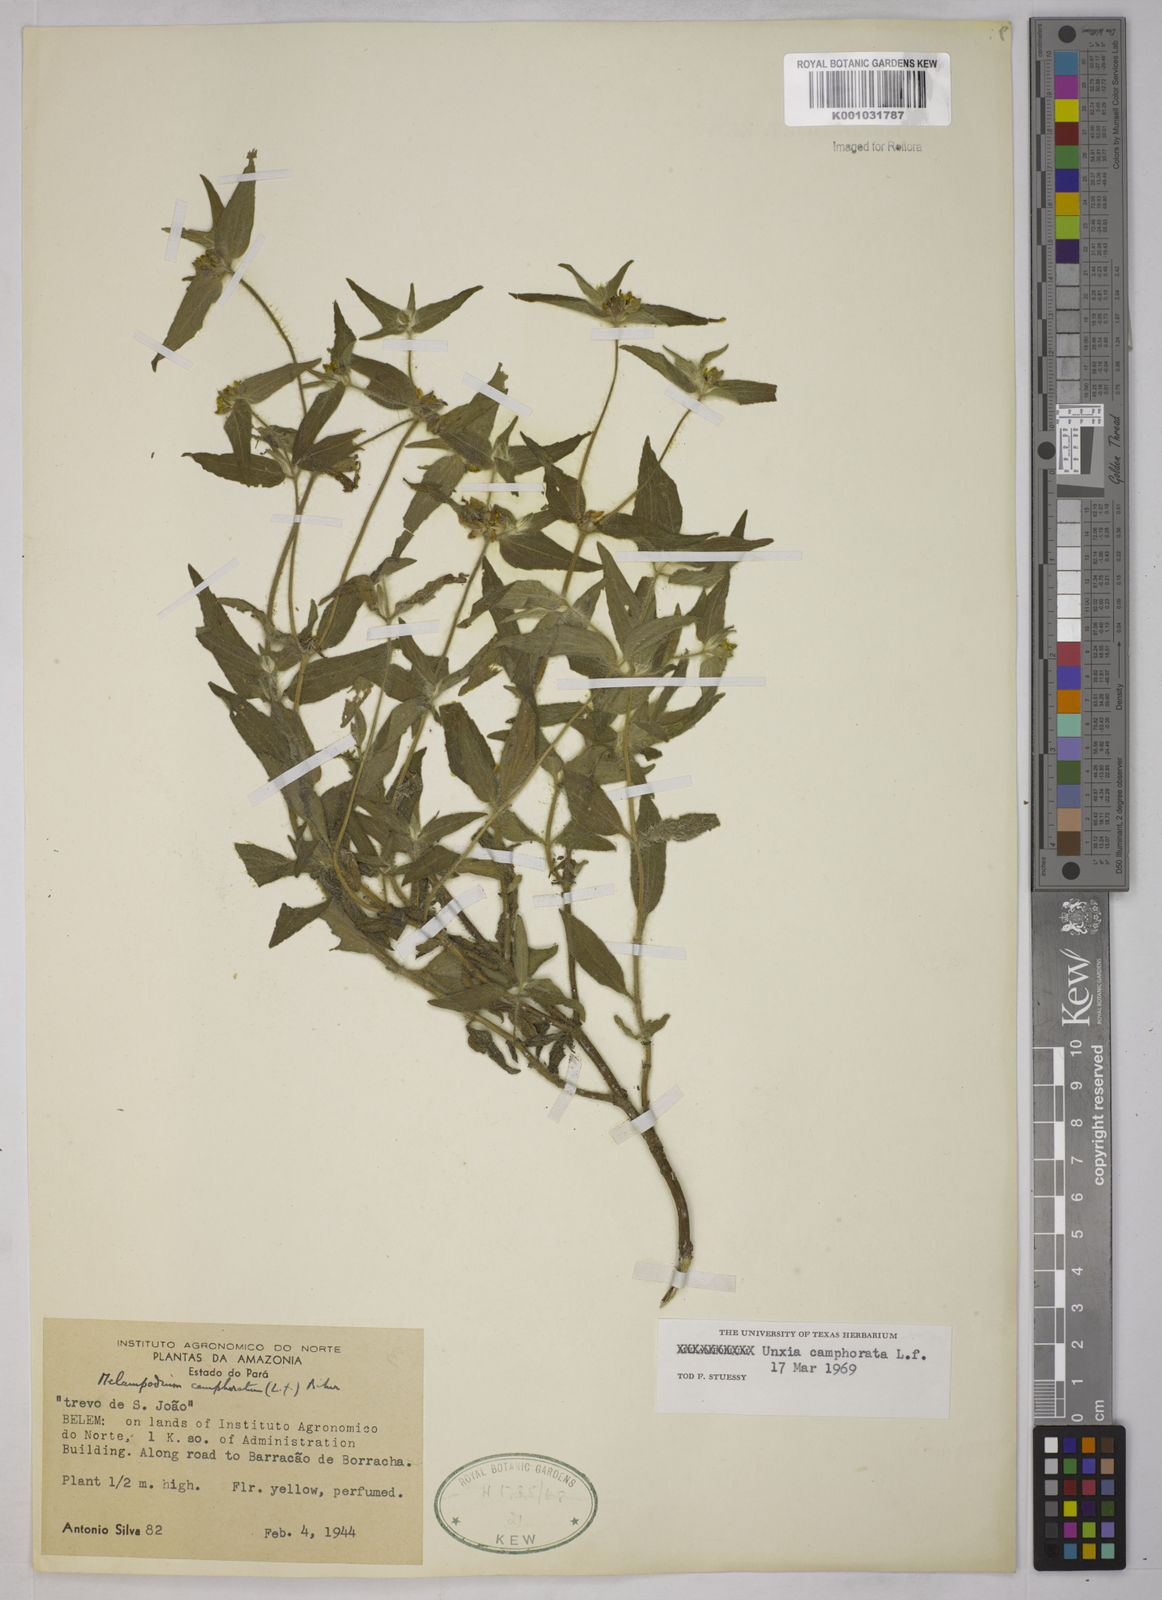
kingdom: Plantae
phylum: Tracheophyta
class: Magnoliopsida
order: Asterales
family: Asteraceae
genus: Unxia
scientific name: Unxia camphorata
